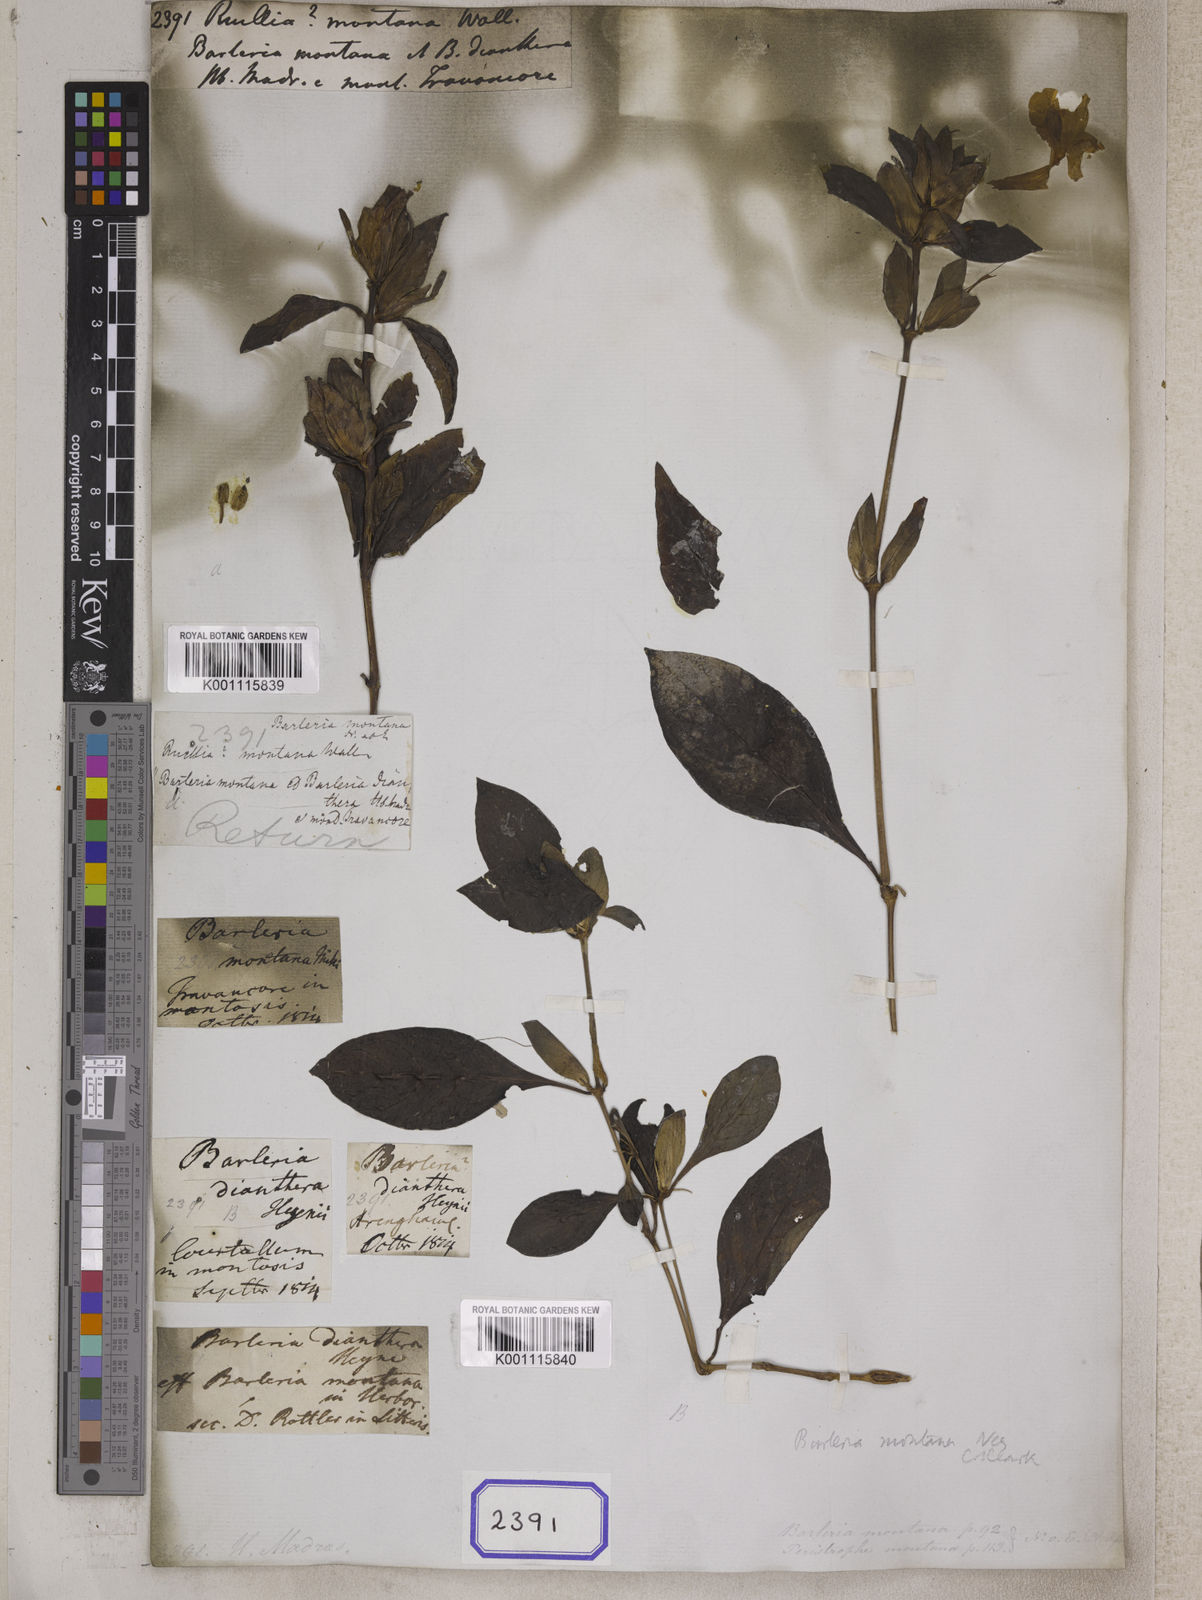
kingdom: Plantae
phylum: Tracheophyta
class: Magnoliopsida
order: Lamiales
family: Acanthaceae
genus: Barleria
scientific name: Barleria montana
